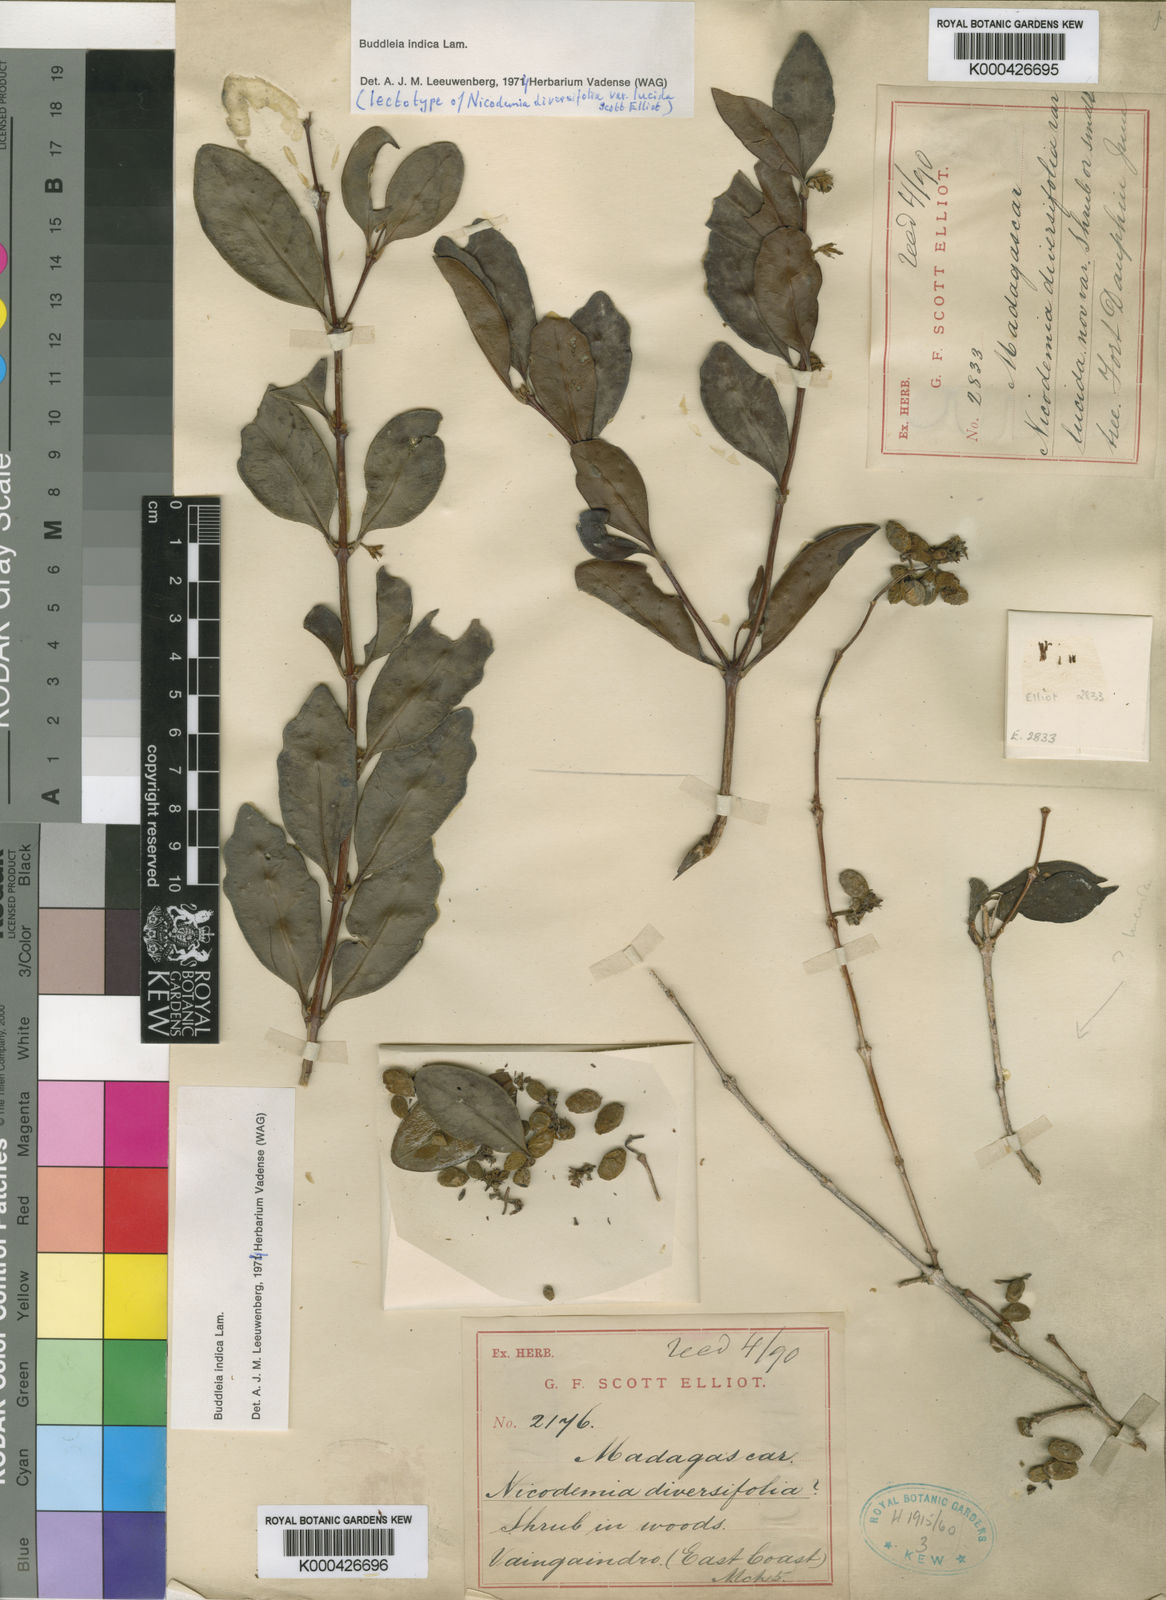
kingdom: Plantae
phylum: Tracheophyta
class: Magnoliopsida
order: Lamiales
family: Scrophulariaceae
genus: Buddleja
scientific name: Buddleja indica
